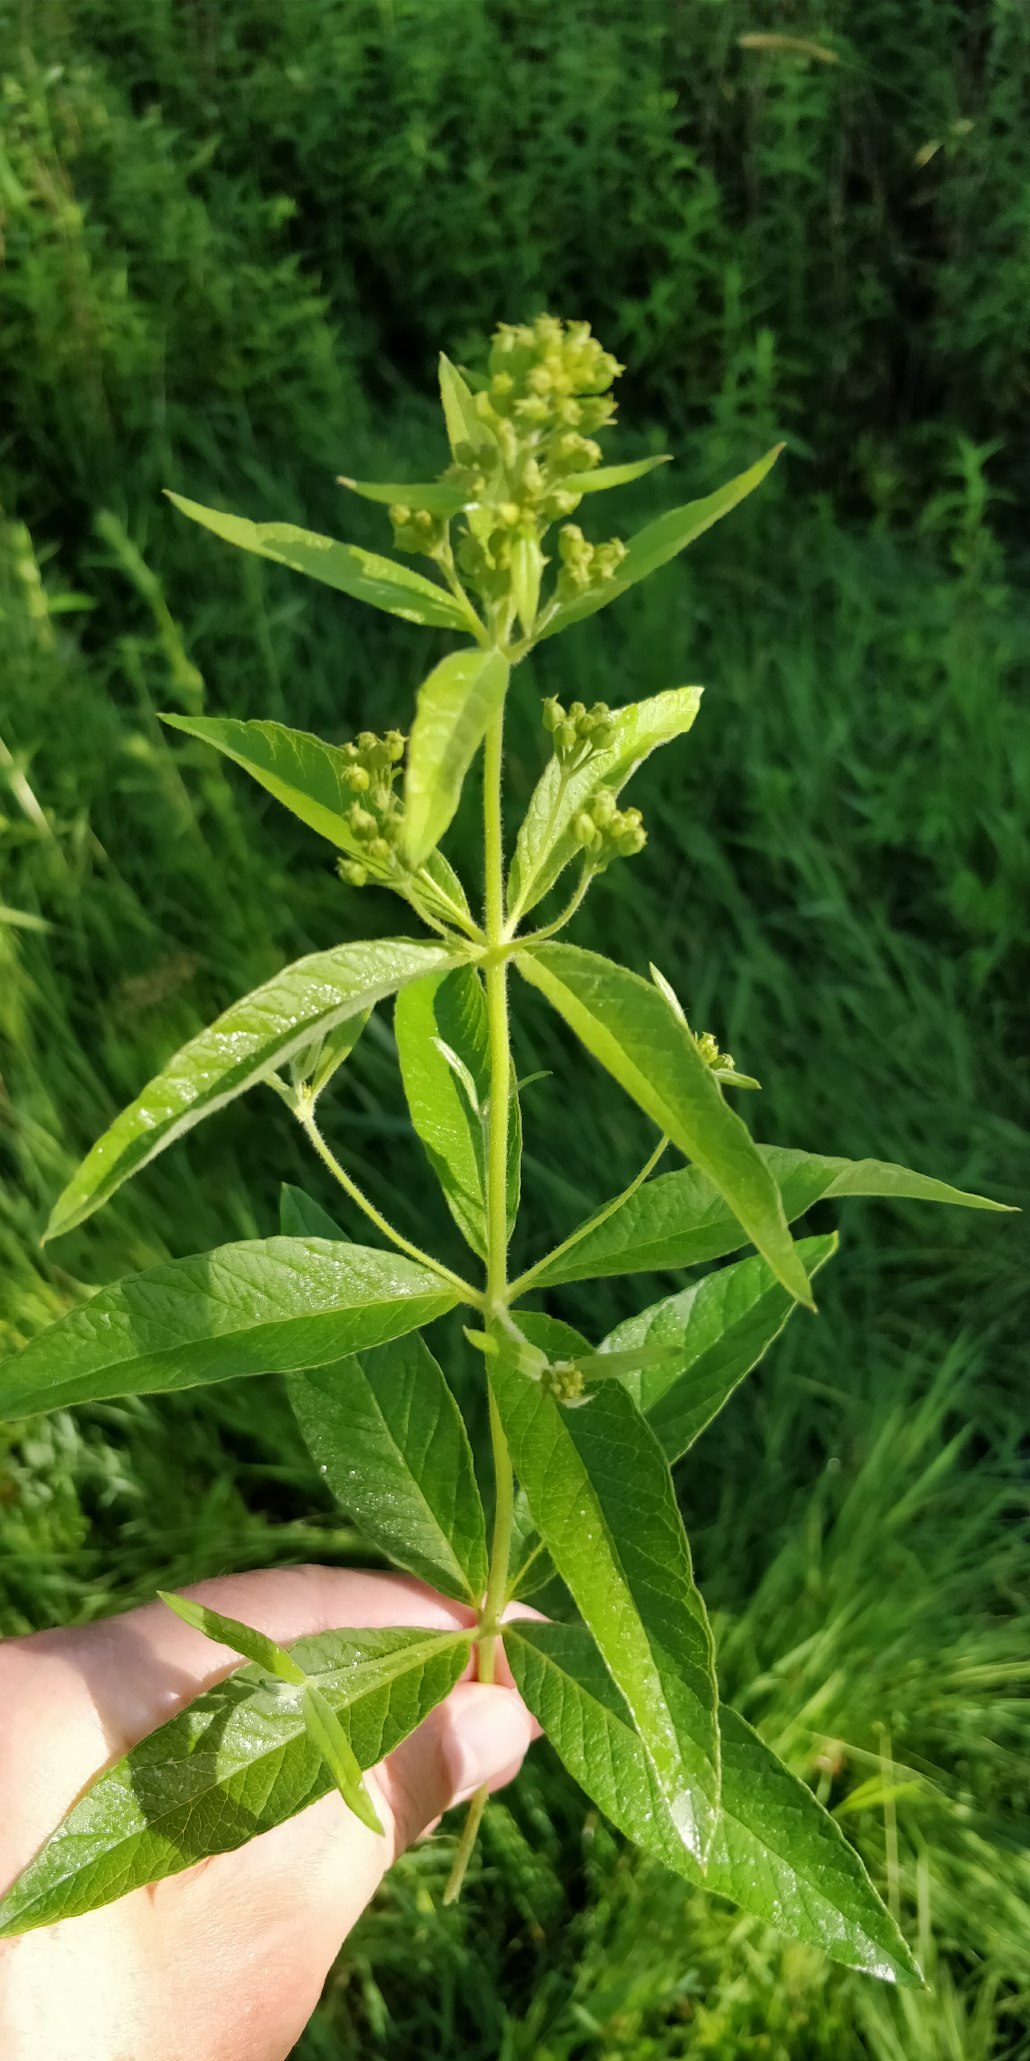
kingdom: Plantae
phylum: Tracheophyta
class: Magnoliopsida
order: Ericales
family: Primulaceae
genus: Lysimachia
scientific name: Lysimachia vulgaris
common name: Almindelig fredløs
